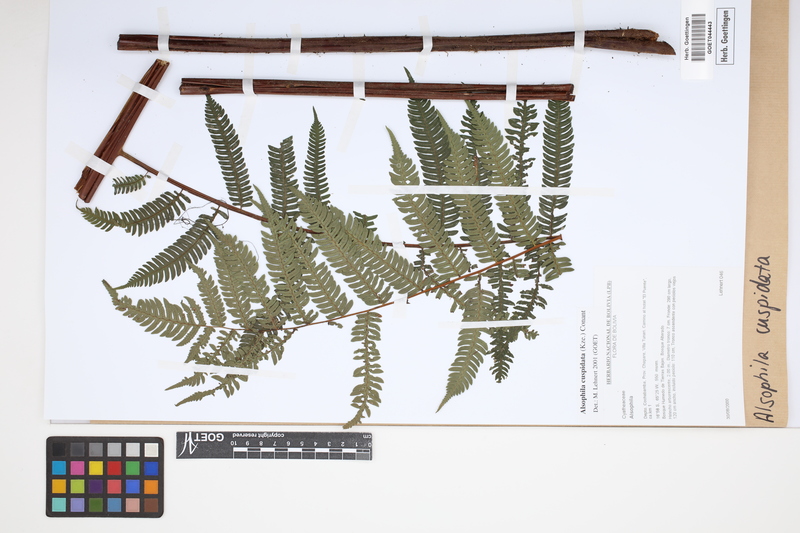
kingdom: Plantae
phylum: Tracheophyta
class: Polypodiopsida
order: Cyatheales
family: Cyatheaceae
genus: Alsophila
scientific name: Alsophila cuspidata
